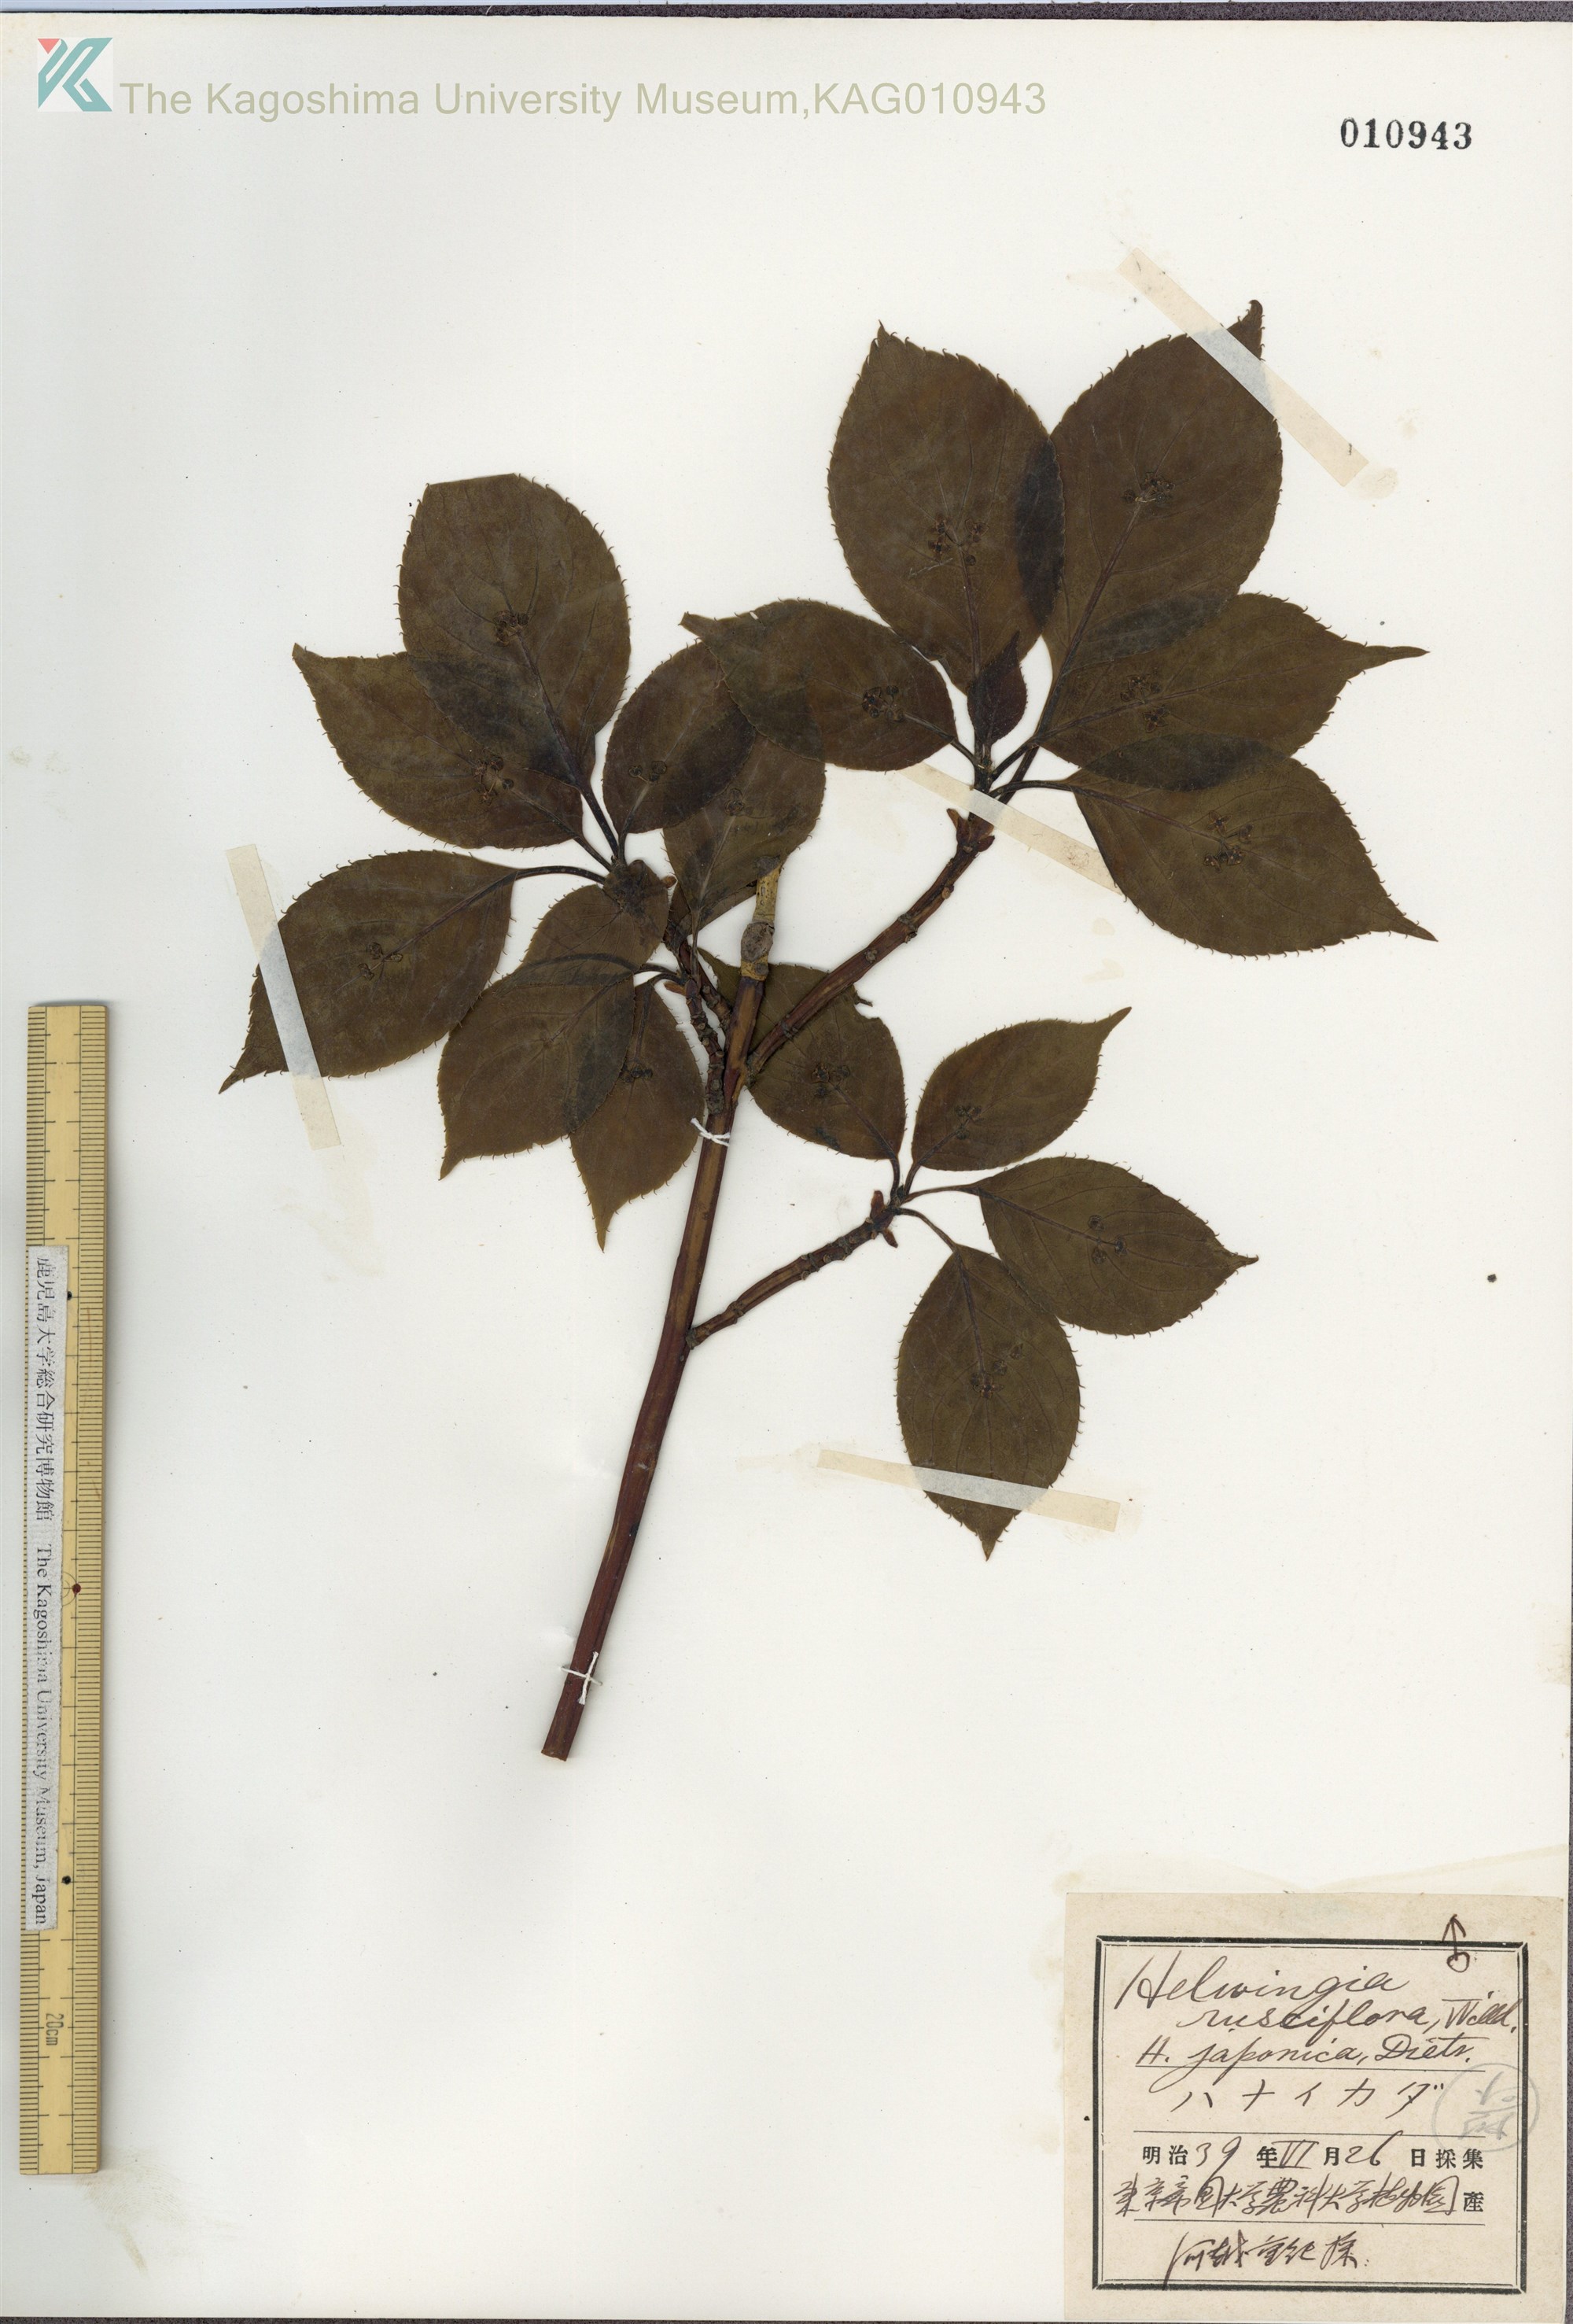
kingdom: Plantae
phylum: Tracheophyta
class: Magnoliopsida
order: Aquifoliales
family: Helwingiaceae
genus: Helwingia
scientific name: Helwingia japonica
